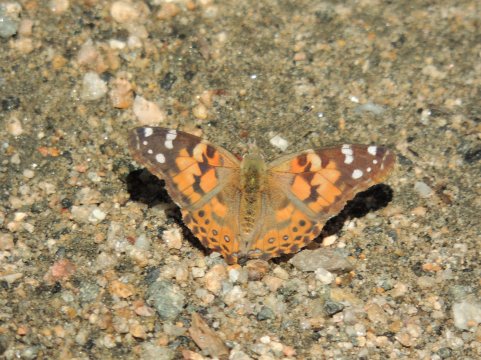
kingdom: Animalia
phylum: Arthropoda
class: Insecta
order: Lepidoptera
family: Nymphalidae
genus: Vanessa
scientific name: Vanessa cardui
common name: Painted Lady
